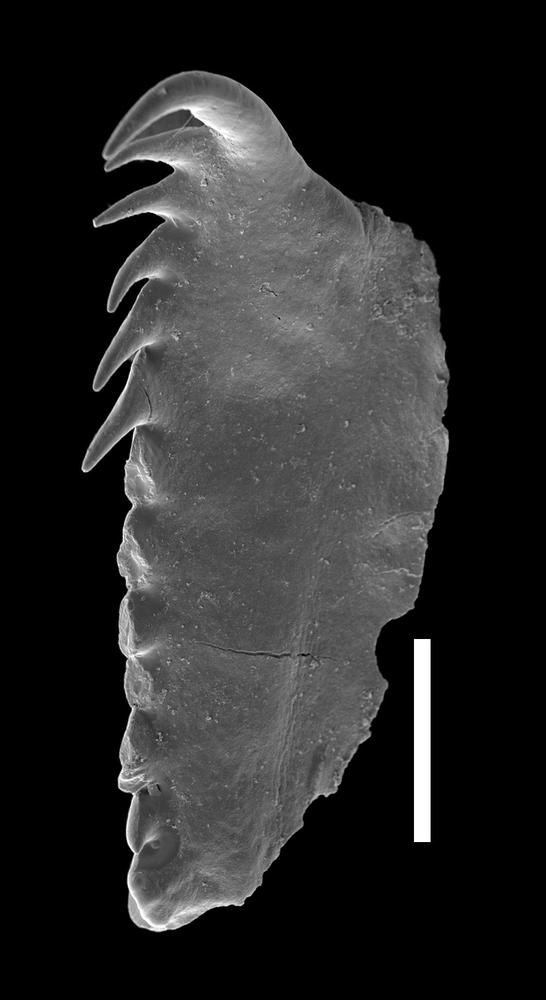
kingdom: Animalia
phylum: Annelida
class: Polychaeta
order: Eunicida
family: Polychaeturidae
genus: Pteropelta
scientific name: Pteropelta gladiata
